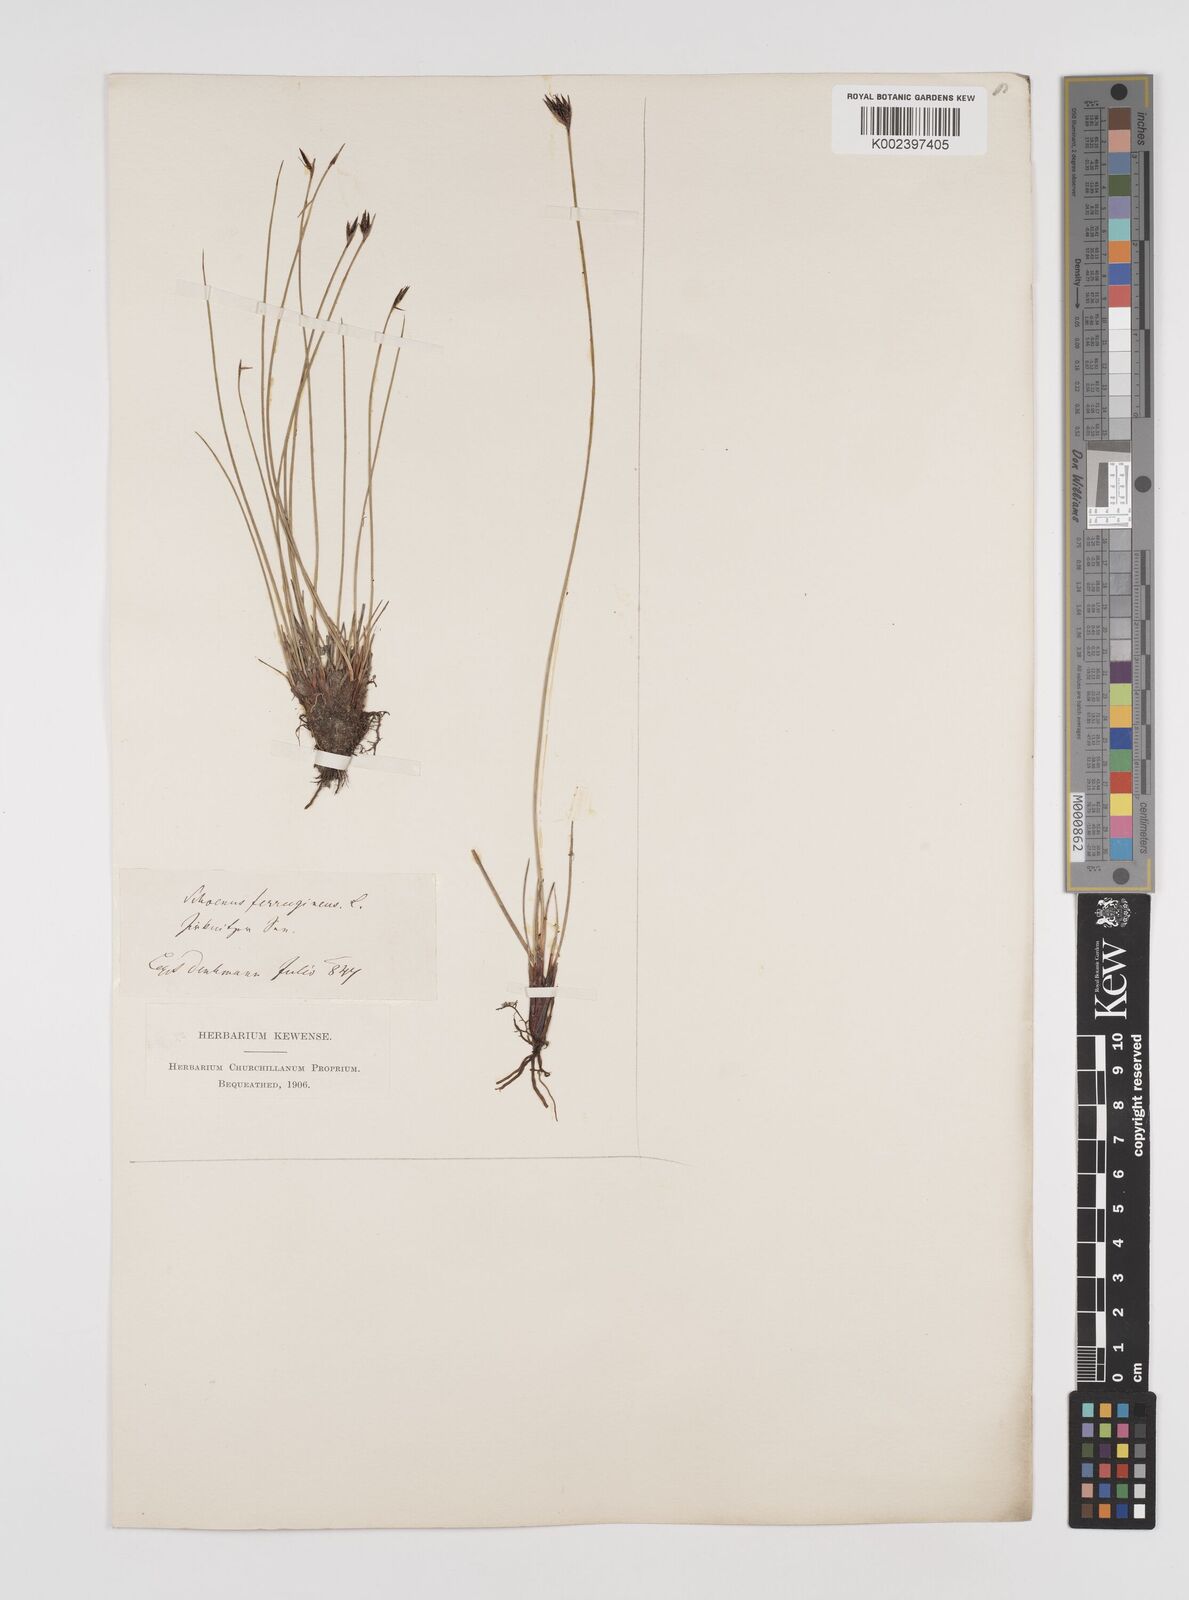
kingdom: Plantae
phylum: Tracheophyta
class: Liliopsida
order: Poales
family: Cyperaceae
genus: Schoenus
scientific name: Schoenus ferrugineus
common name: Brown bog-rush
